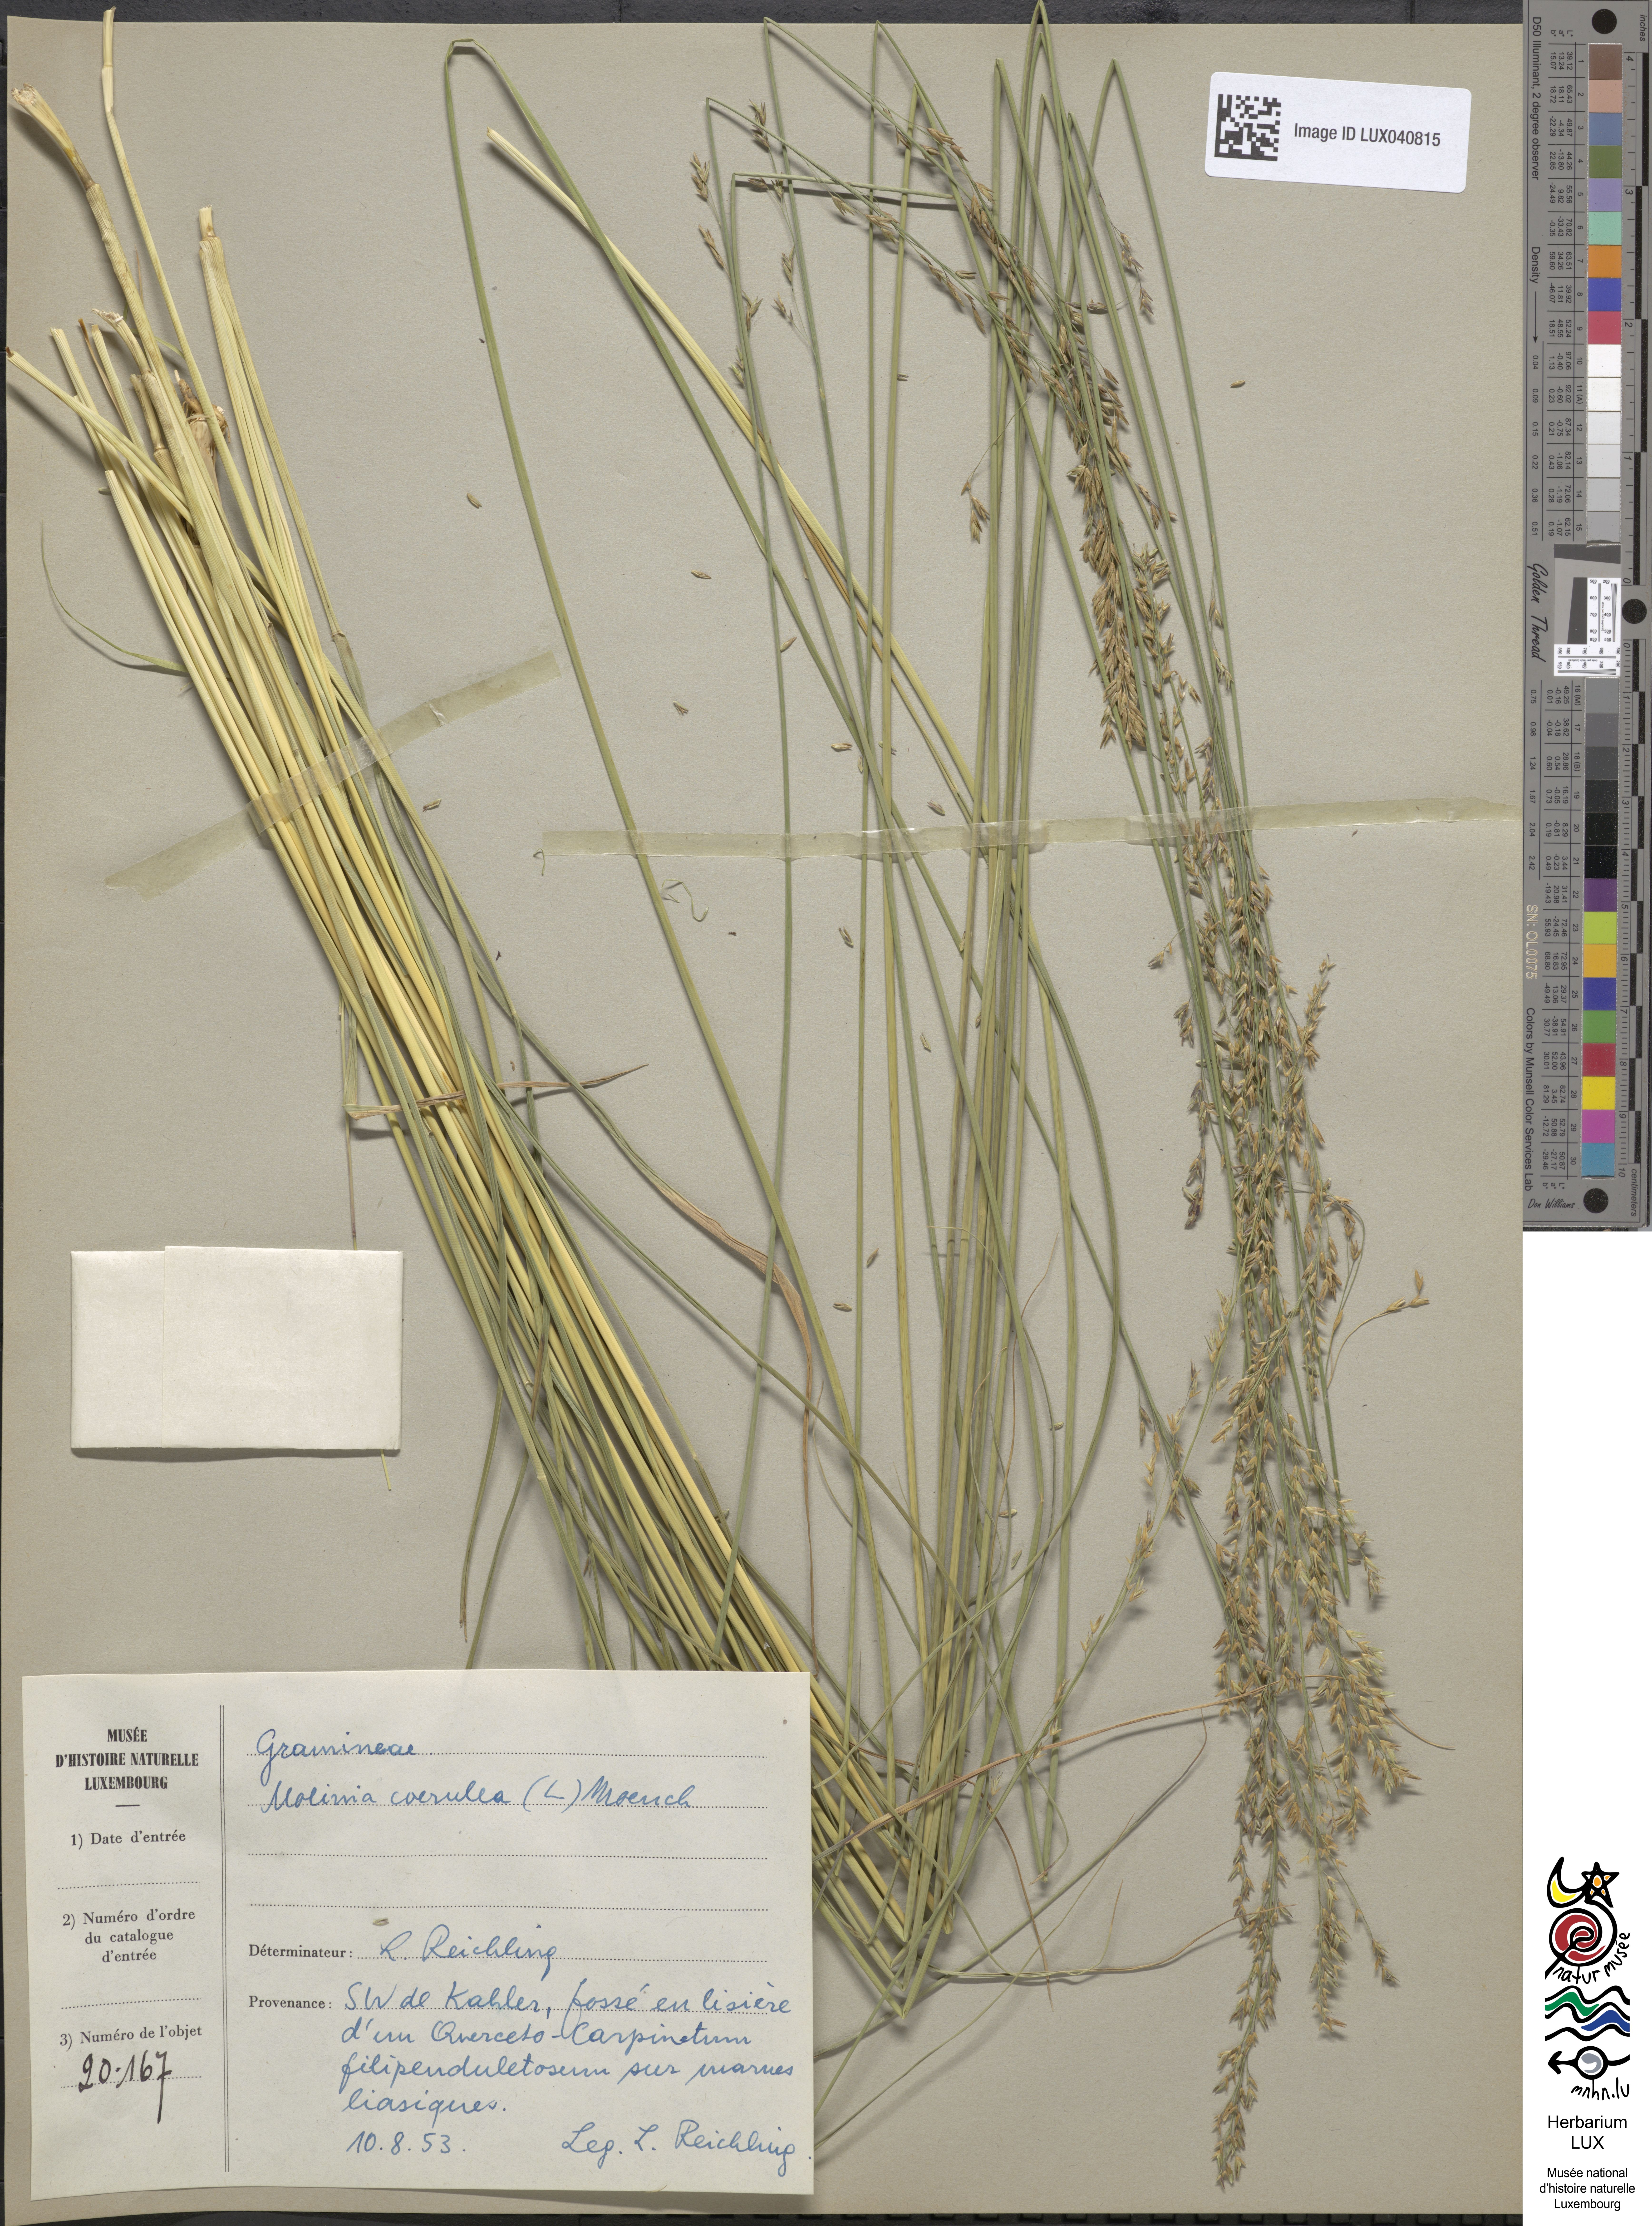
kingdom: Plantae
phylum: Tracheophyta
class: Liliopsida
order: Poales
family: Poaceae
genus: Molinia
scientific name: Molinia caerulea
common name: Purple moor-grass
